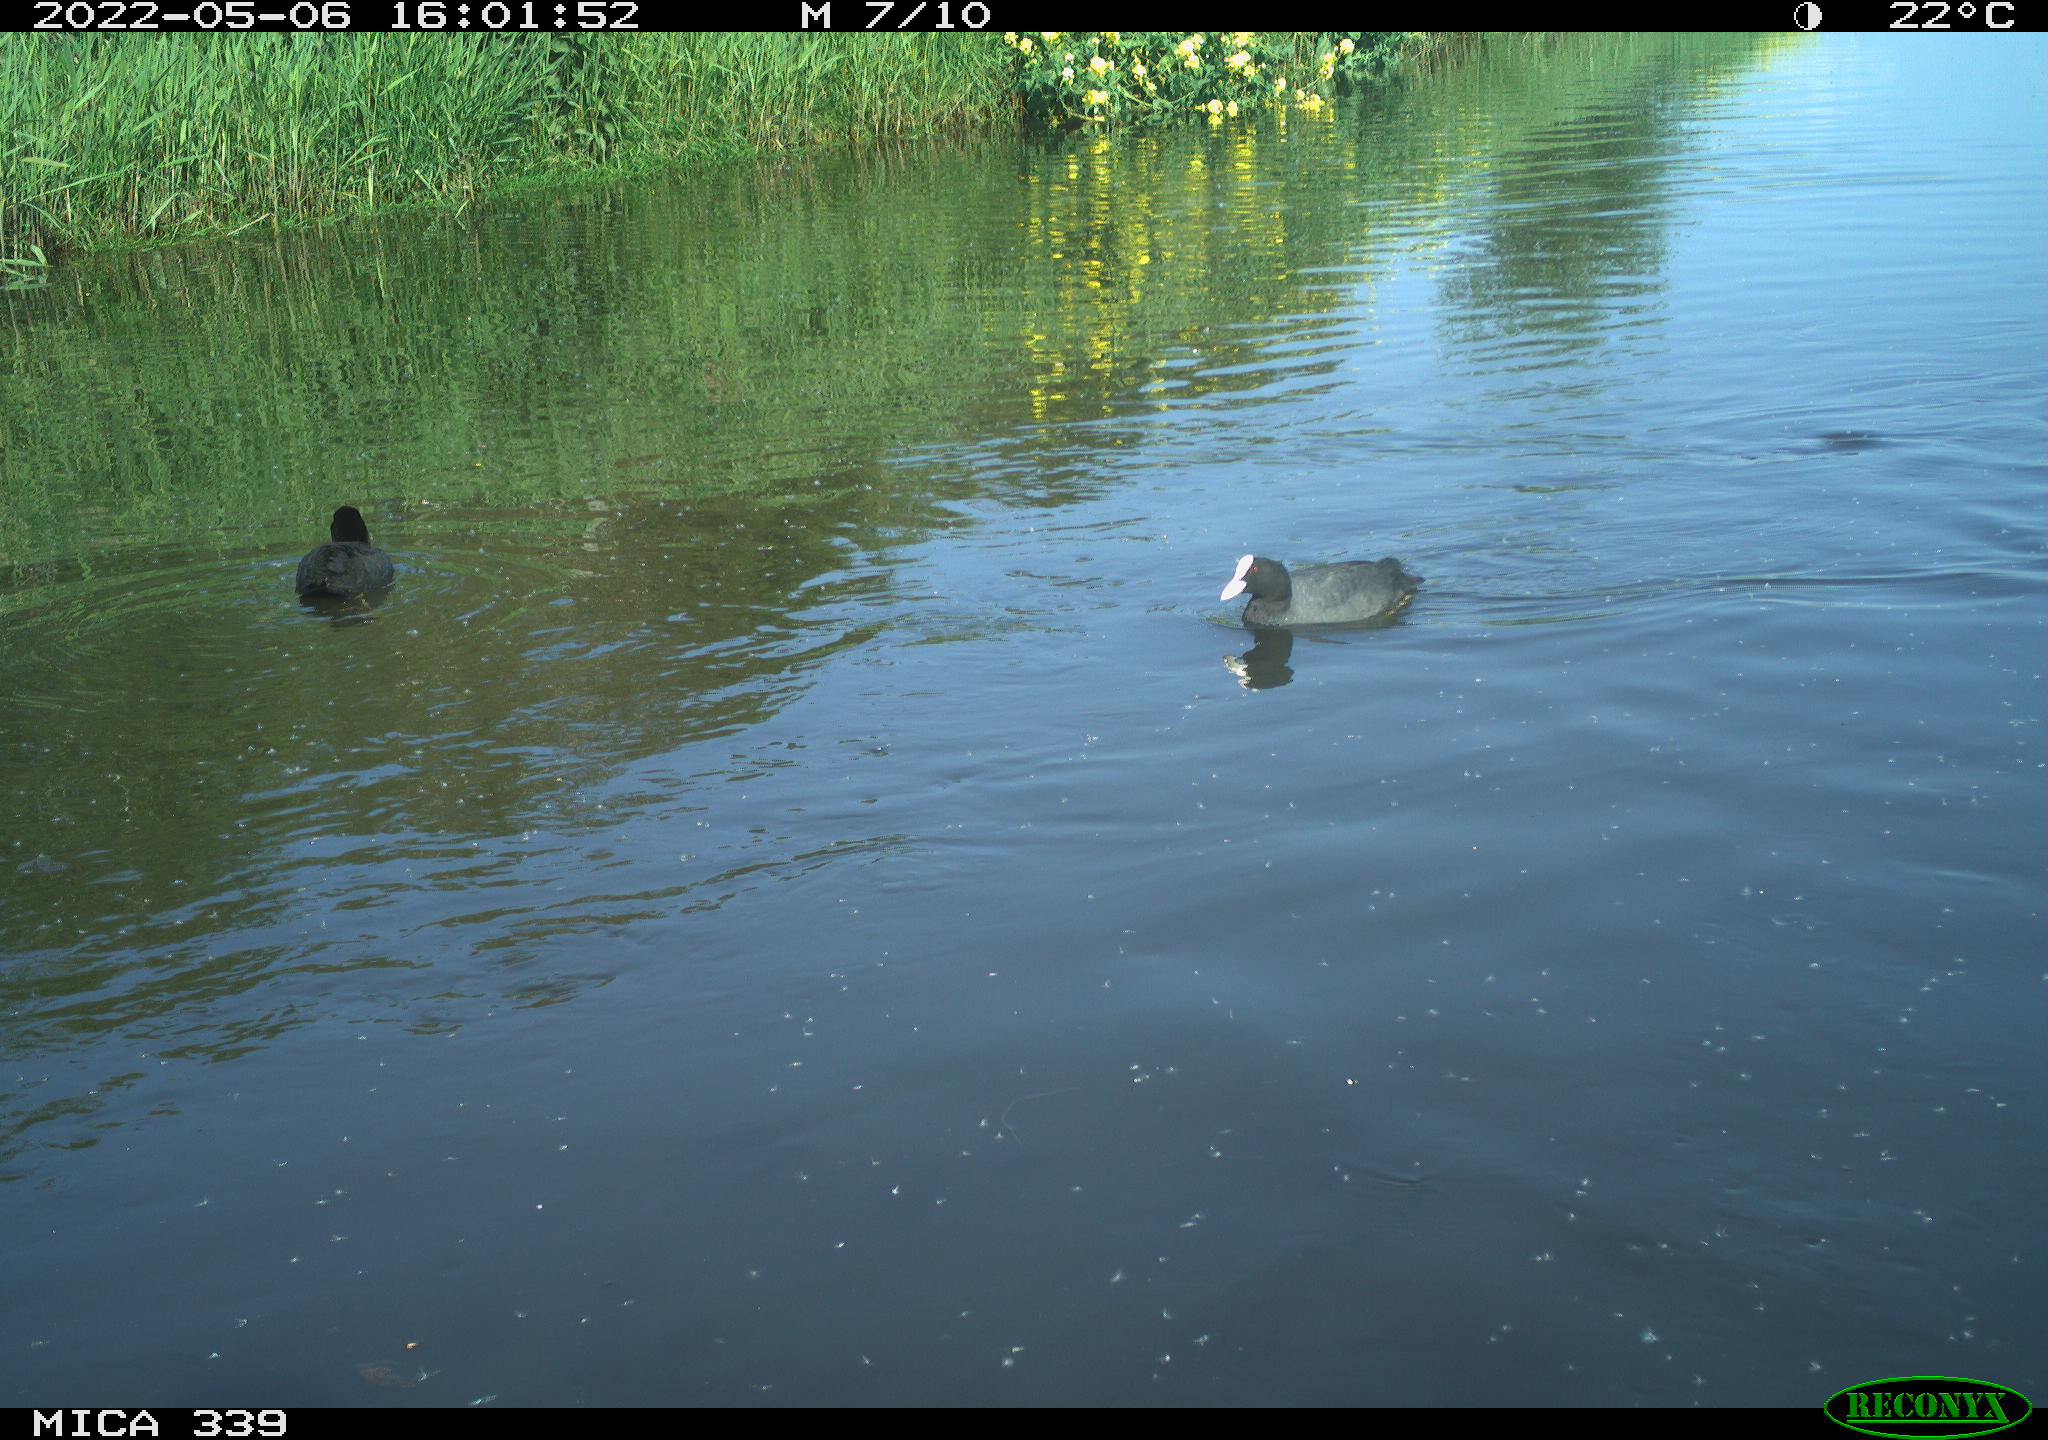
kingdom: Animalia
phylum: Chordata
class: Aves
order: Gruiformes
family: Rallidae
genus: Fulica
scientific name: Fulica atra
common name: Eurasian coot
